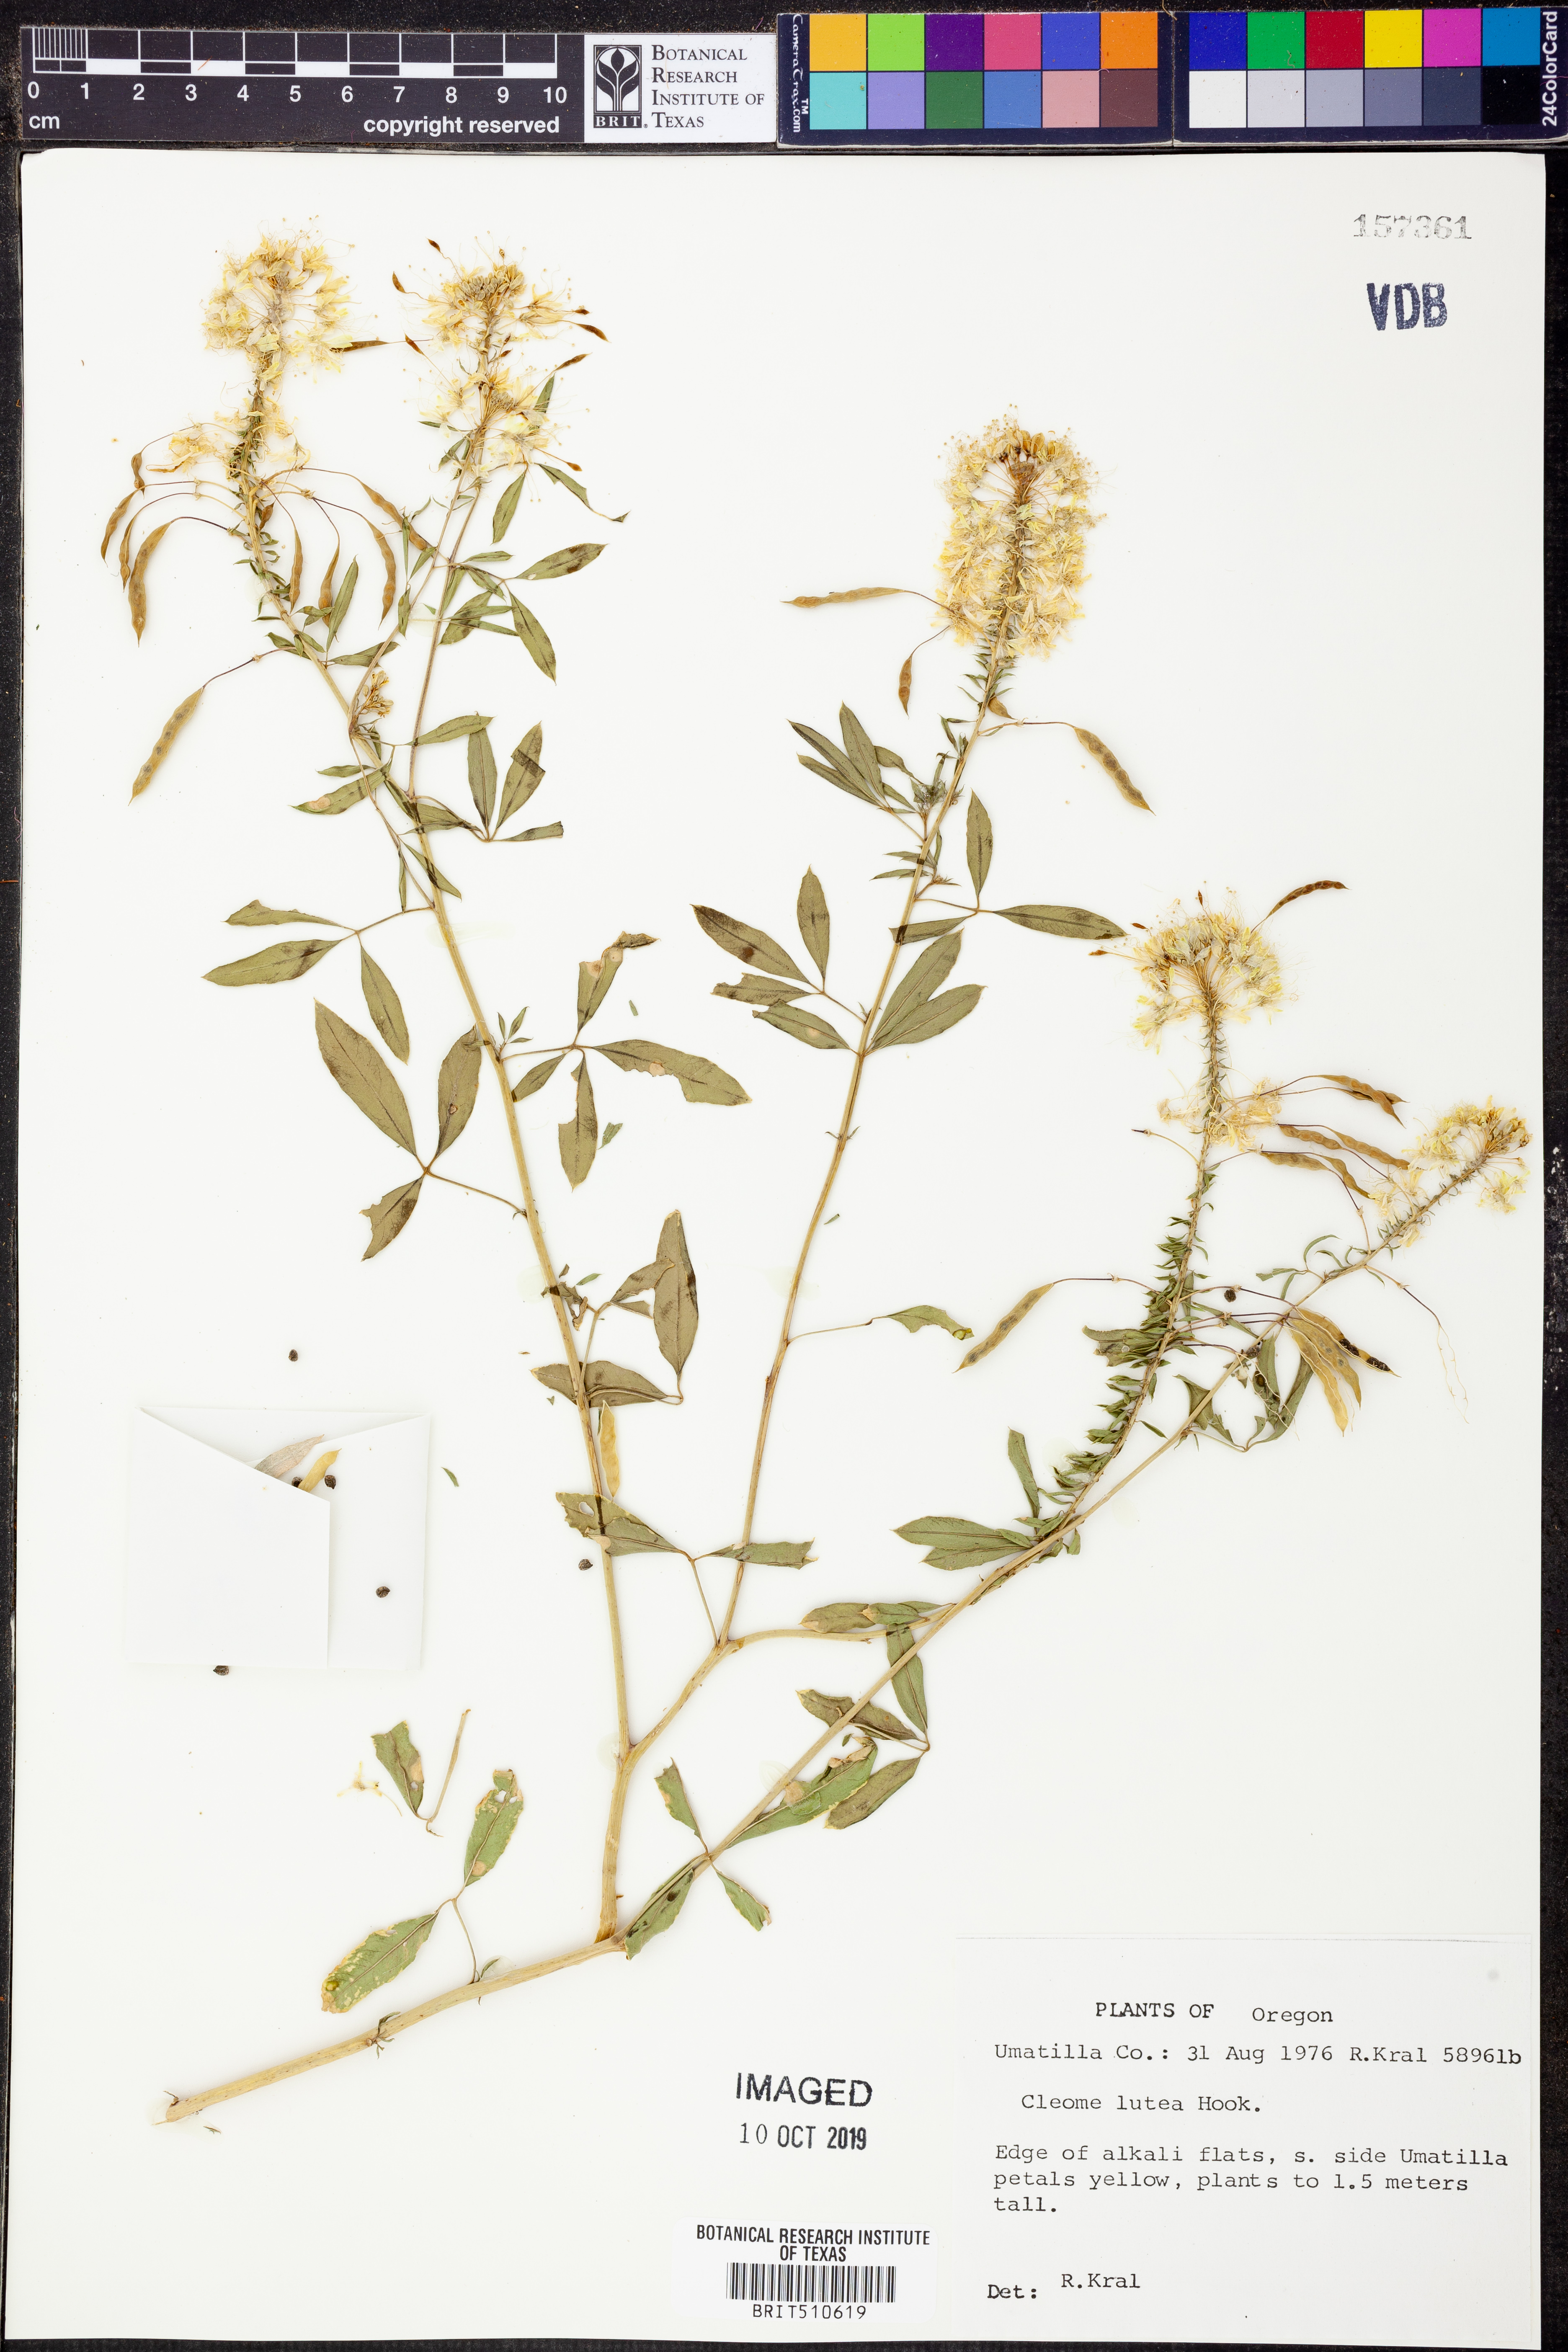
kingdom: Plantae
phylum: Tracheophyta
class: Magnoliopsida
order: Brassicales
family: Cleomaceae
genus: Cleomella
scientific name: Cleomella lutea
